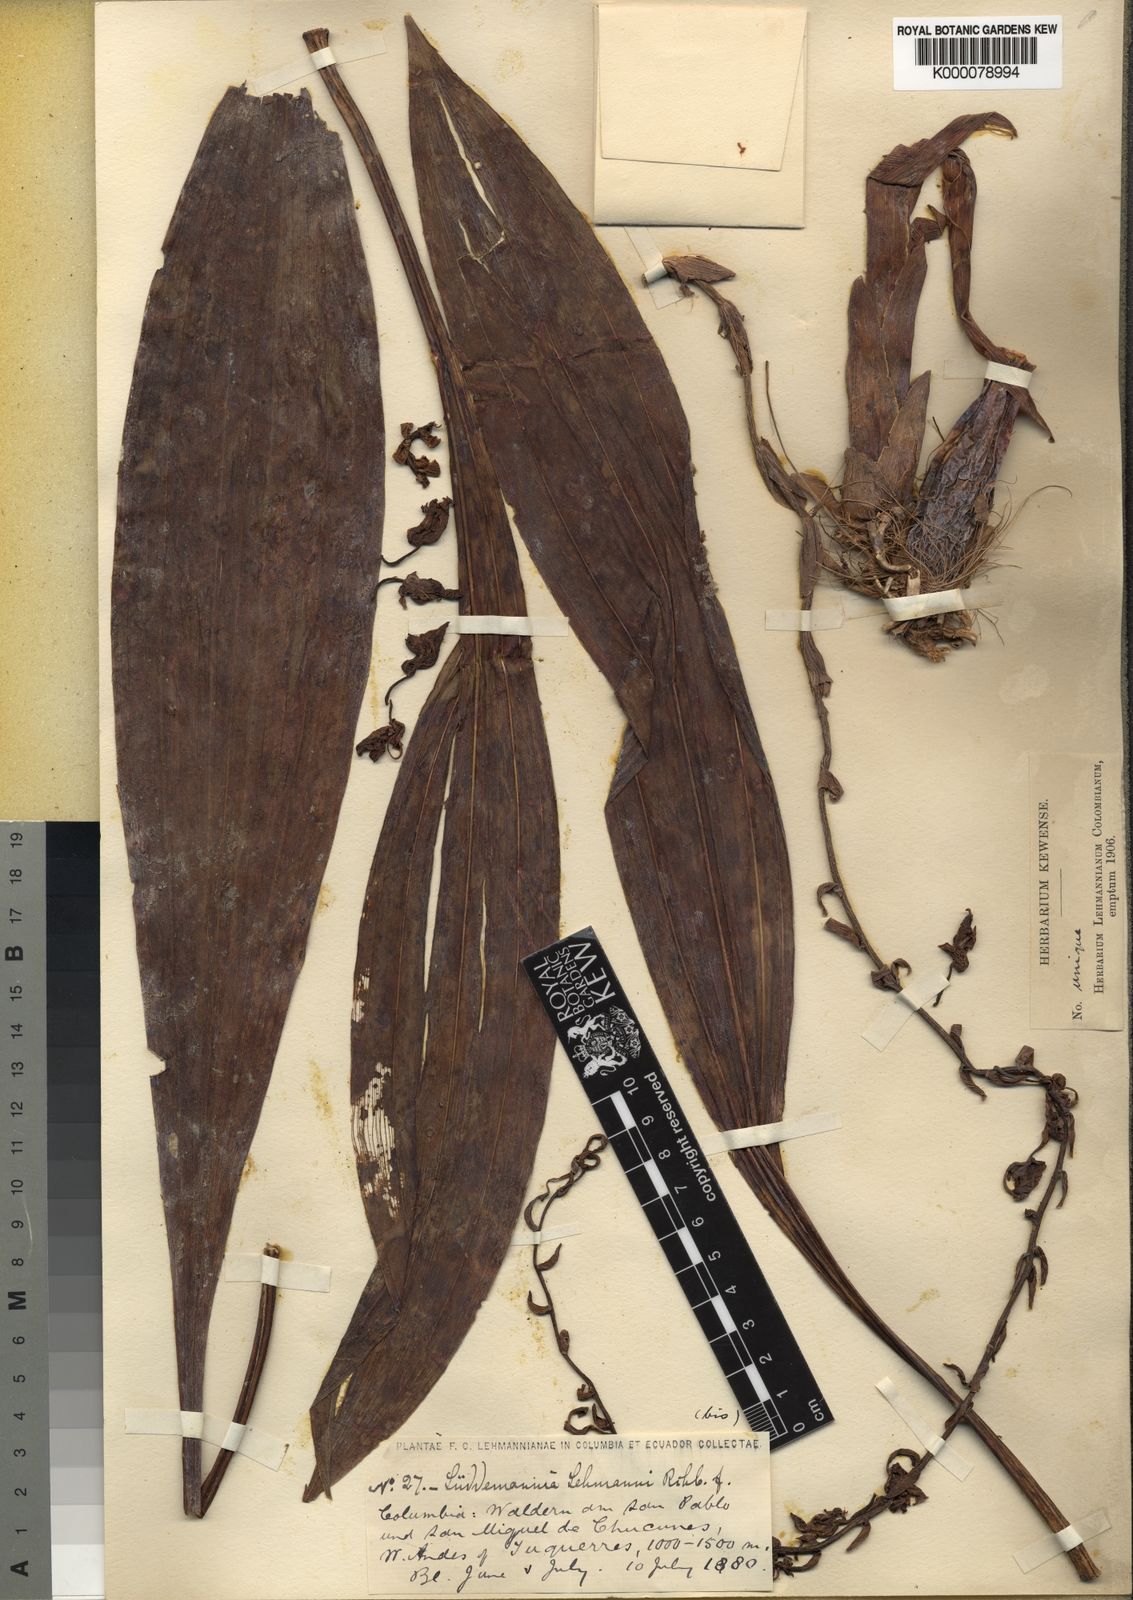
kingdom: Plantae
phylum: Tracheophyta
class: Liliopsida
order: Asparagales
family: Orchidaceae
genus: Cycnoches
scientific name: Cycnoches lehmannii
